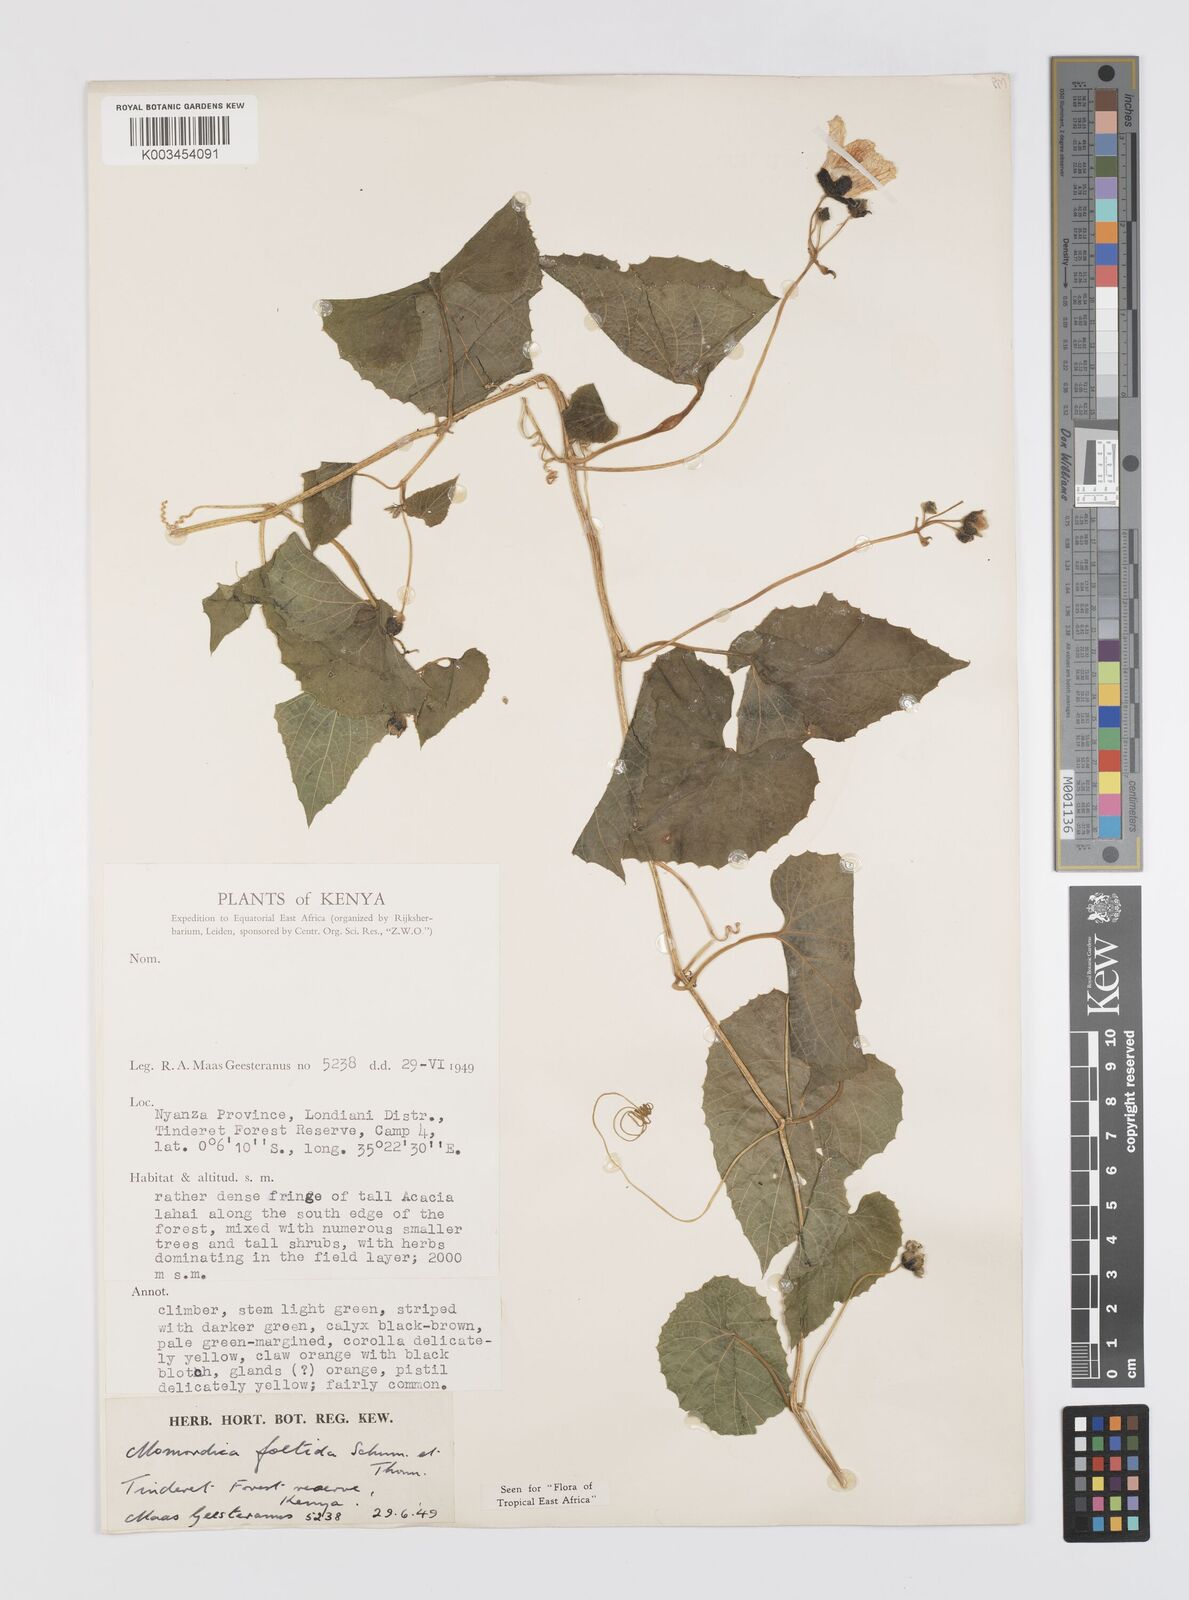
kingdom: Plantae
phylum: Tracheophyta
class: Magnoliopsida
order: Cucurbitales
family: Cucurbitaceae
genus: Momordica
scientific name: Momordica foetida
